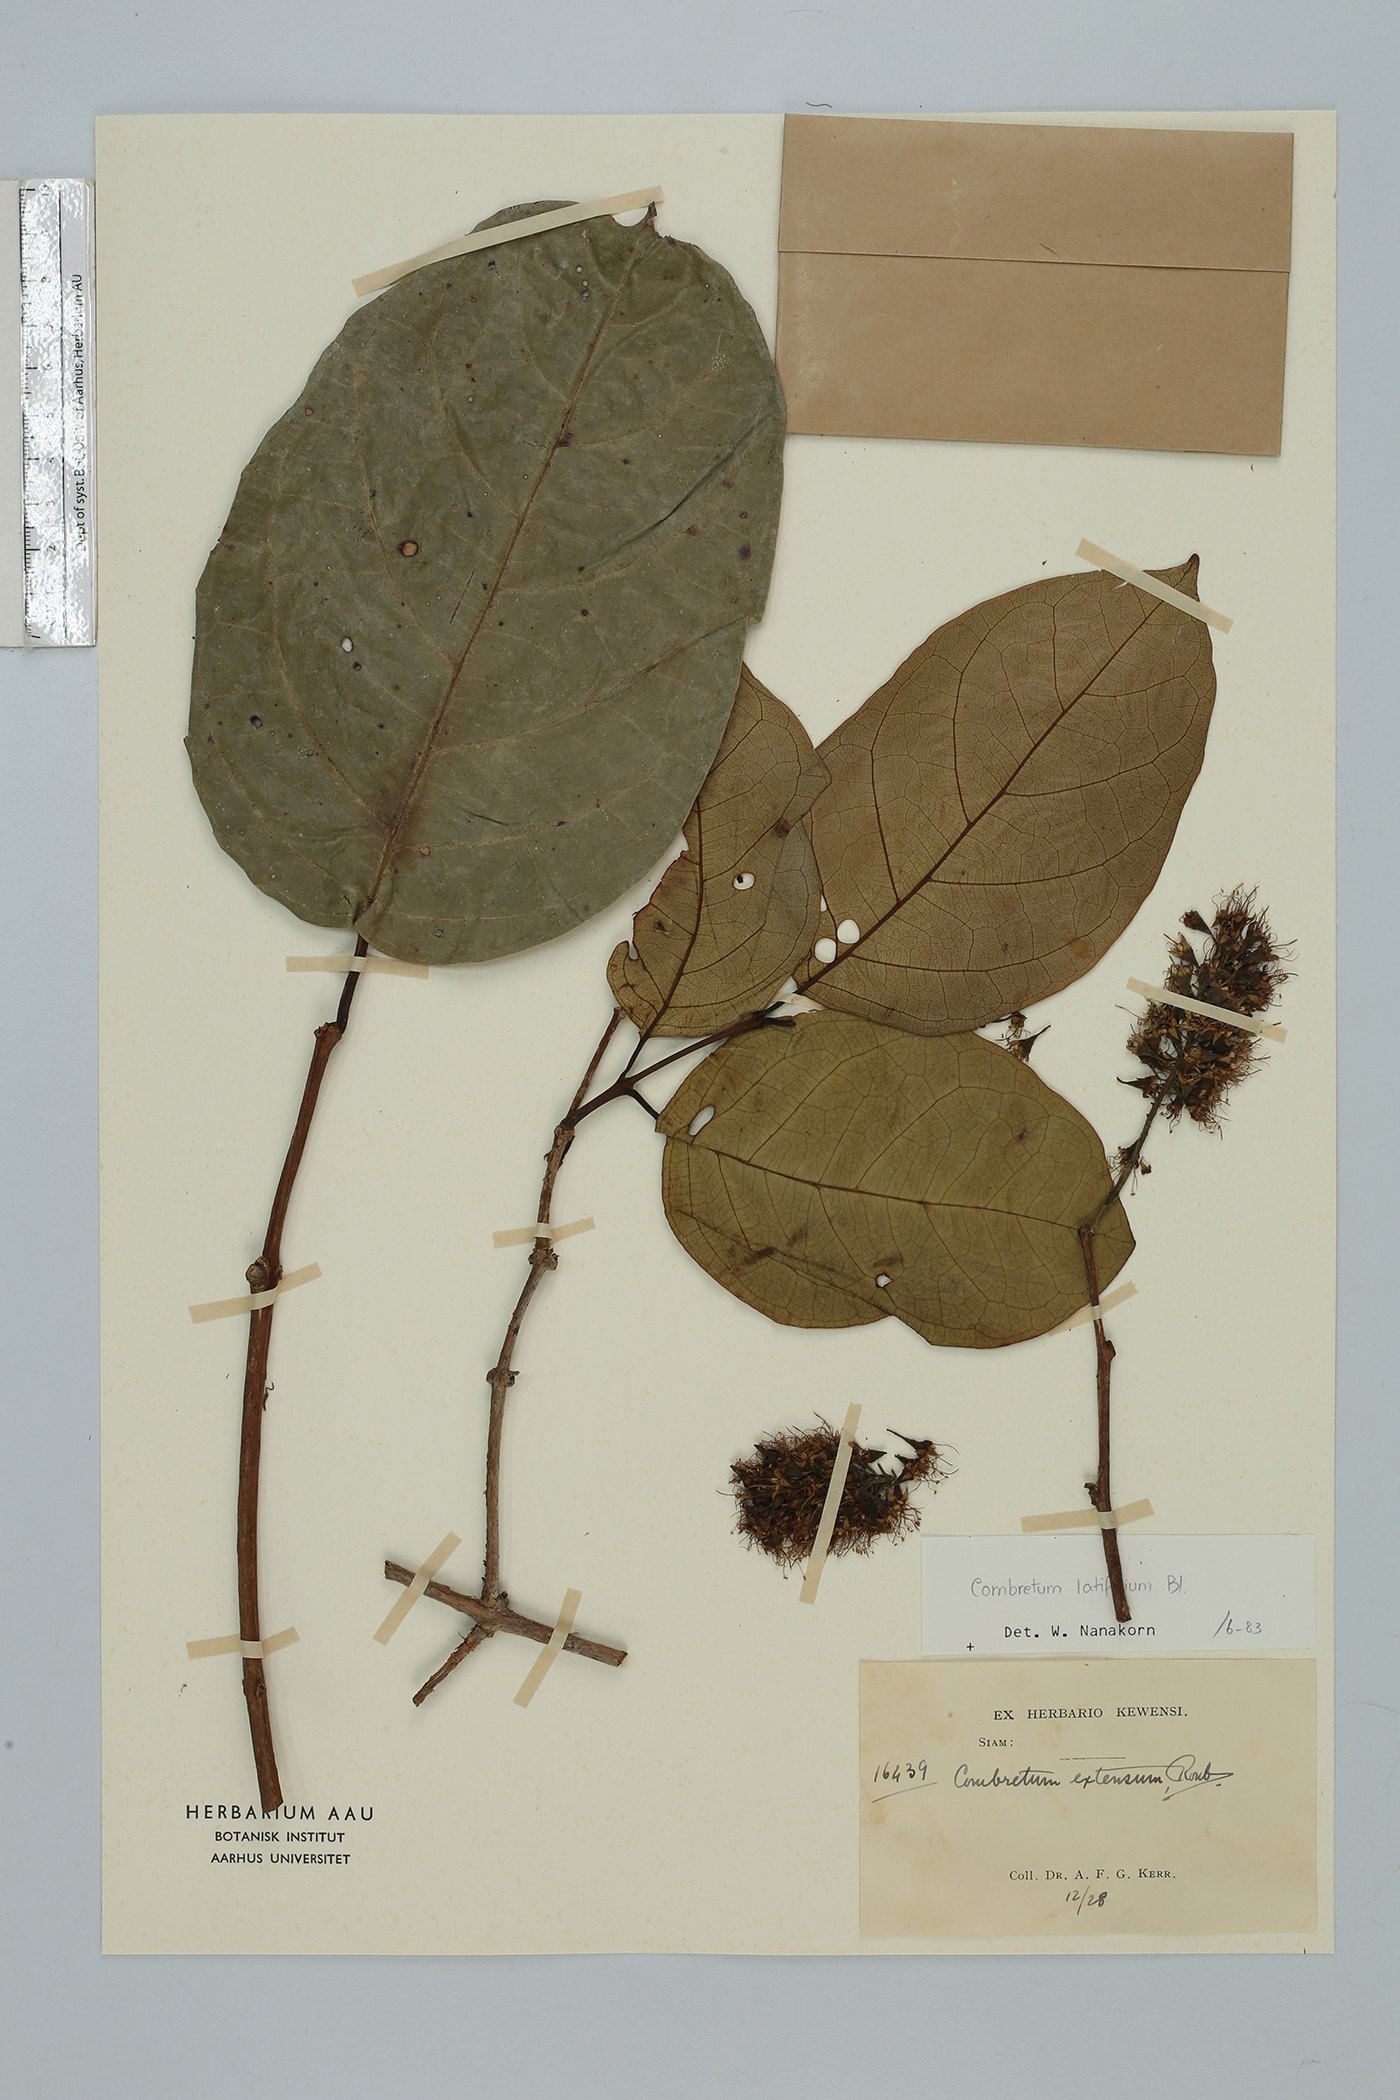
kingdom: Plantae
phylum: Tracheophyta
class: Magnoliopsida
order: Myrtales
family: Combretaceae
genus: Combretum
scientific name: Combretum latifolium
